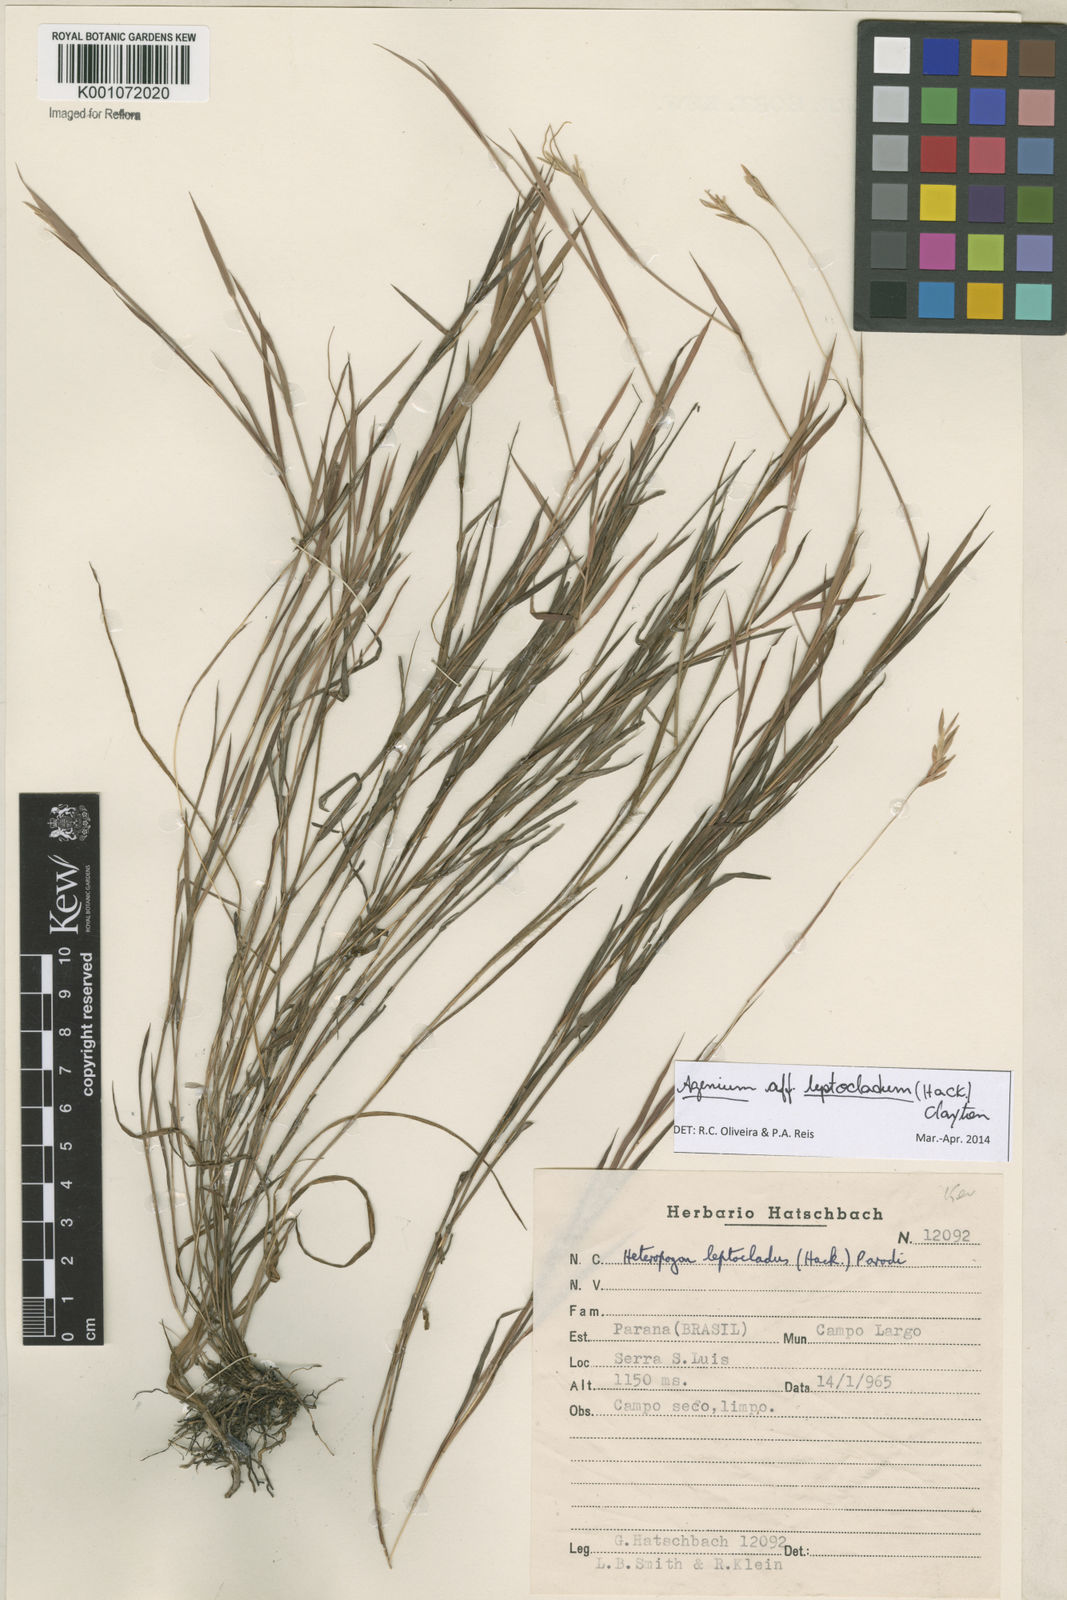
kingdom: Plantae
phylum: Tracheophyta
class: Liliopsida
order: Poales
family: Poaceae
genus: Agenium
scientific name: Agenium leptocladum
